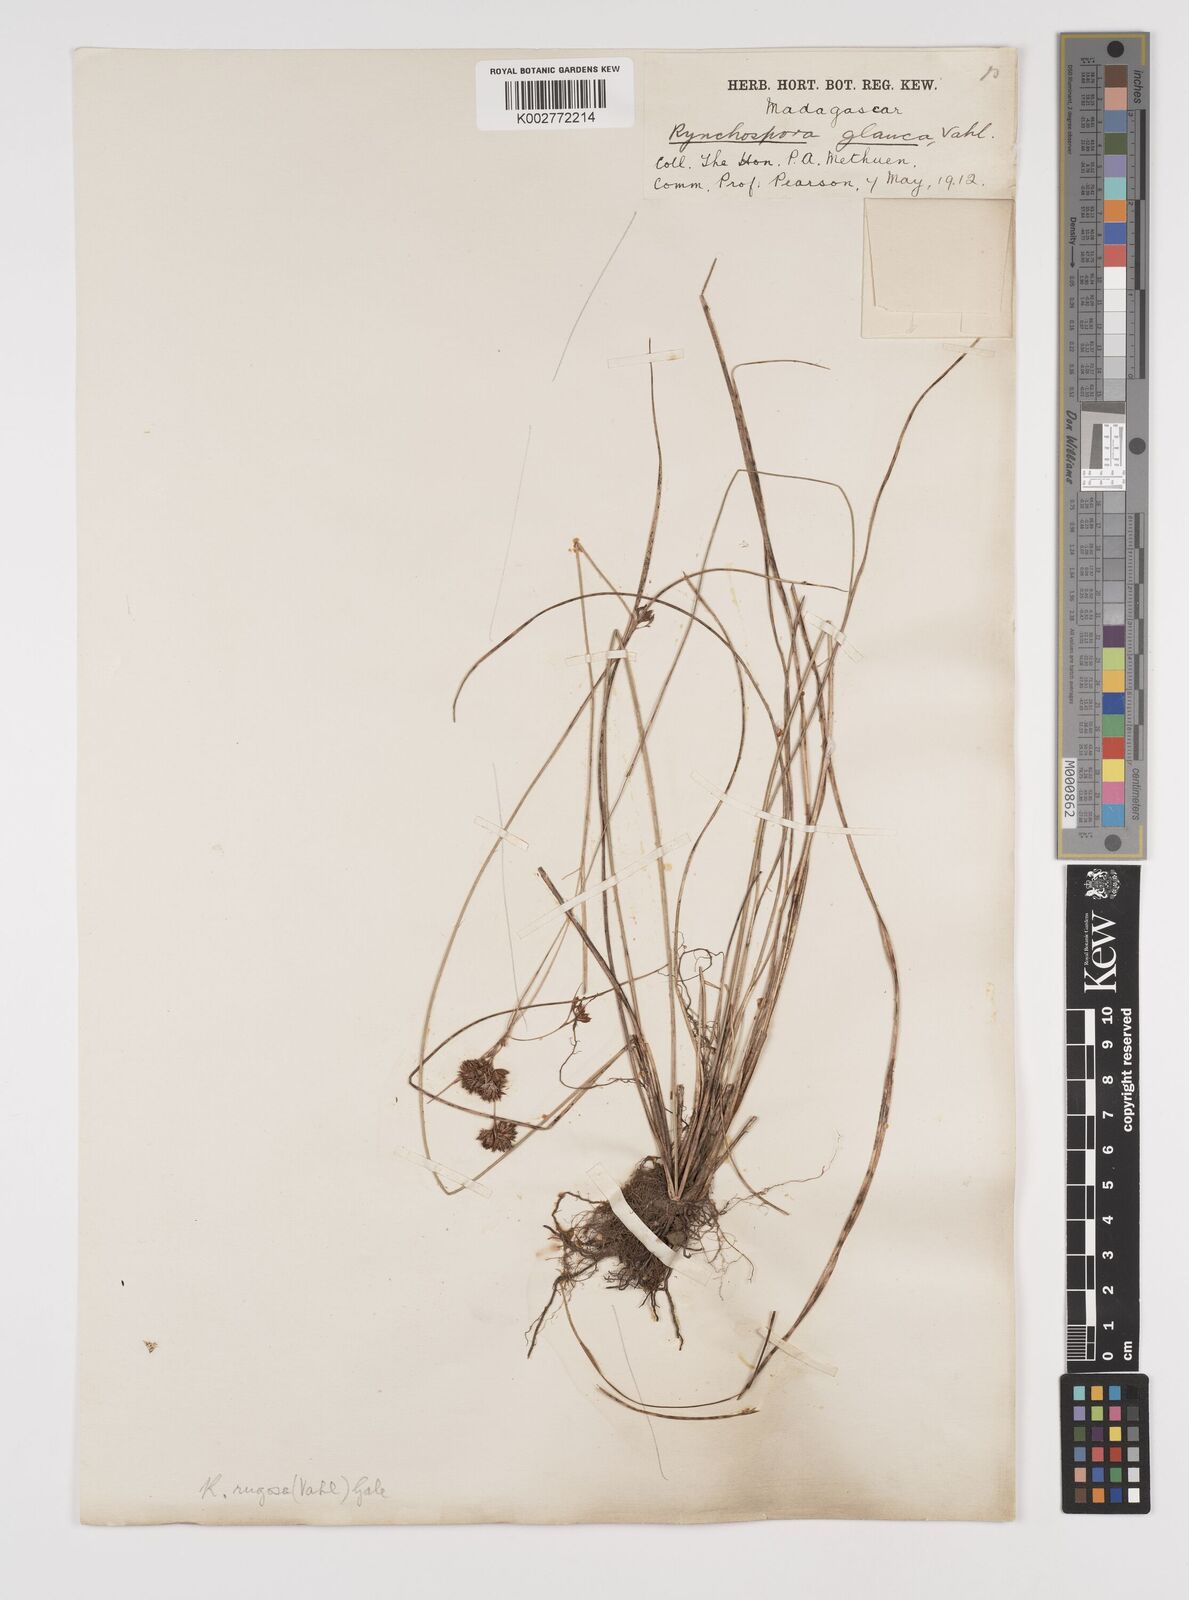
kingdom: Plantae
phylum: Tracheophyta
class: Liliopsida
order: Poales
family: Cyperaceae
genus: Rhynchospora
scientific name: Rhynchospora rugosa
